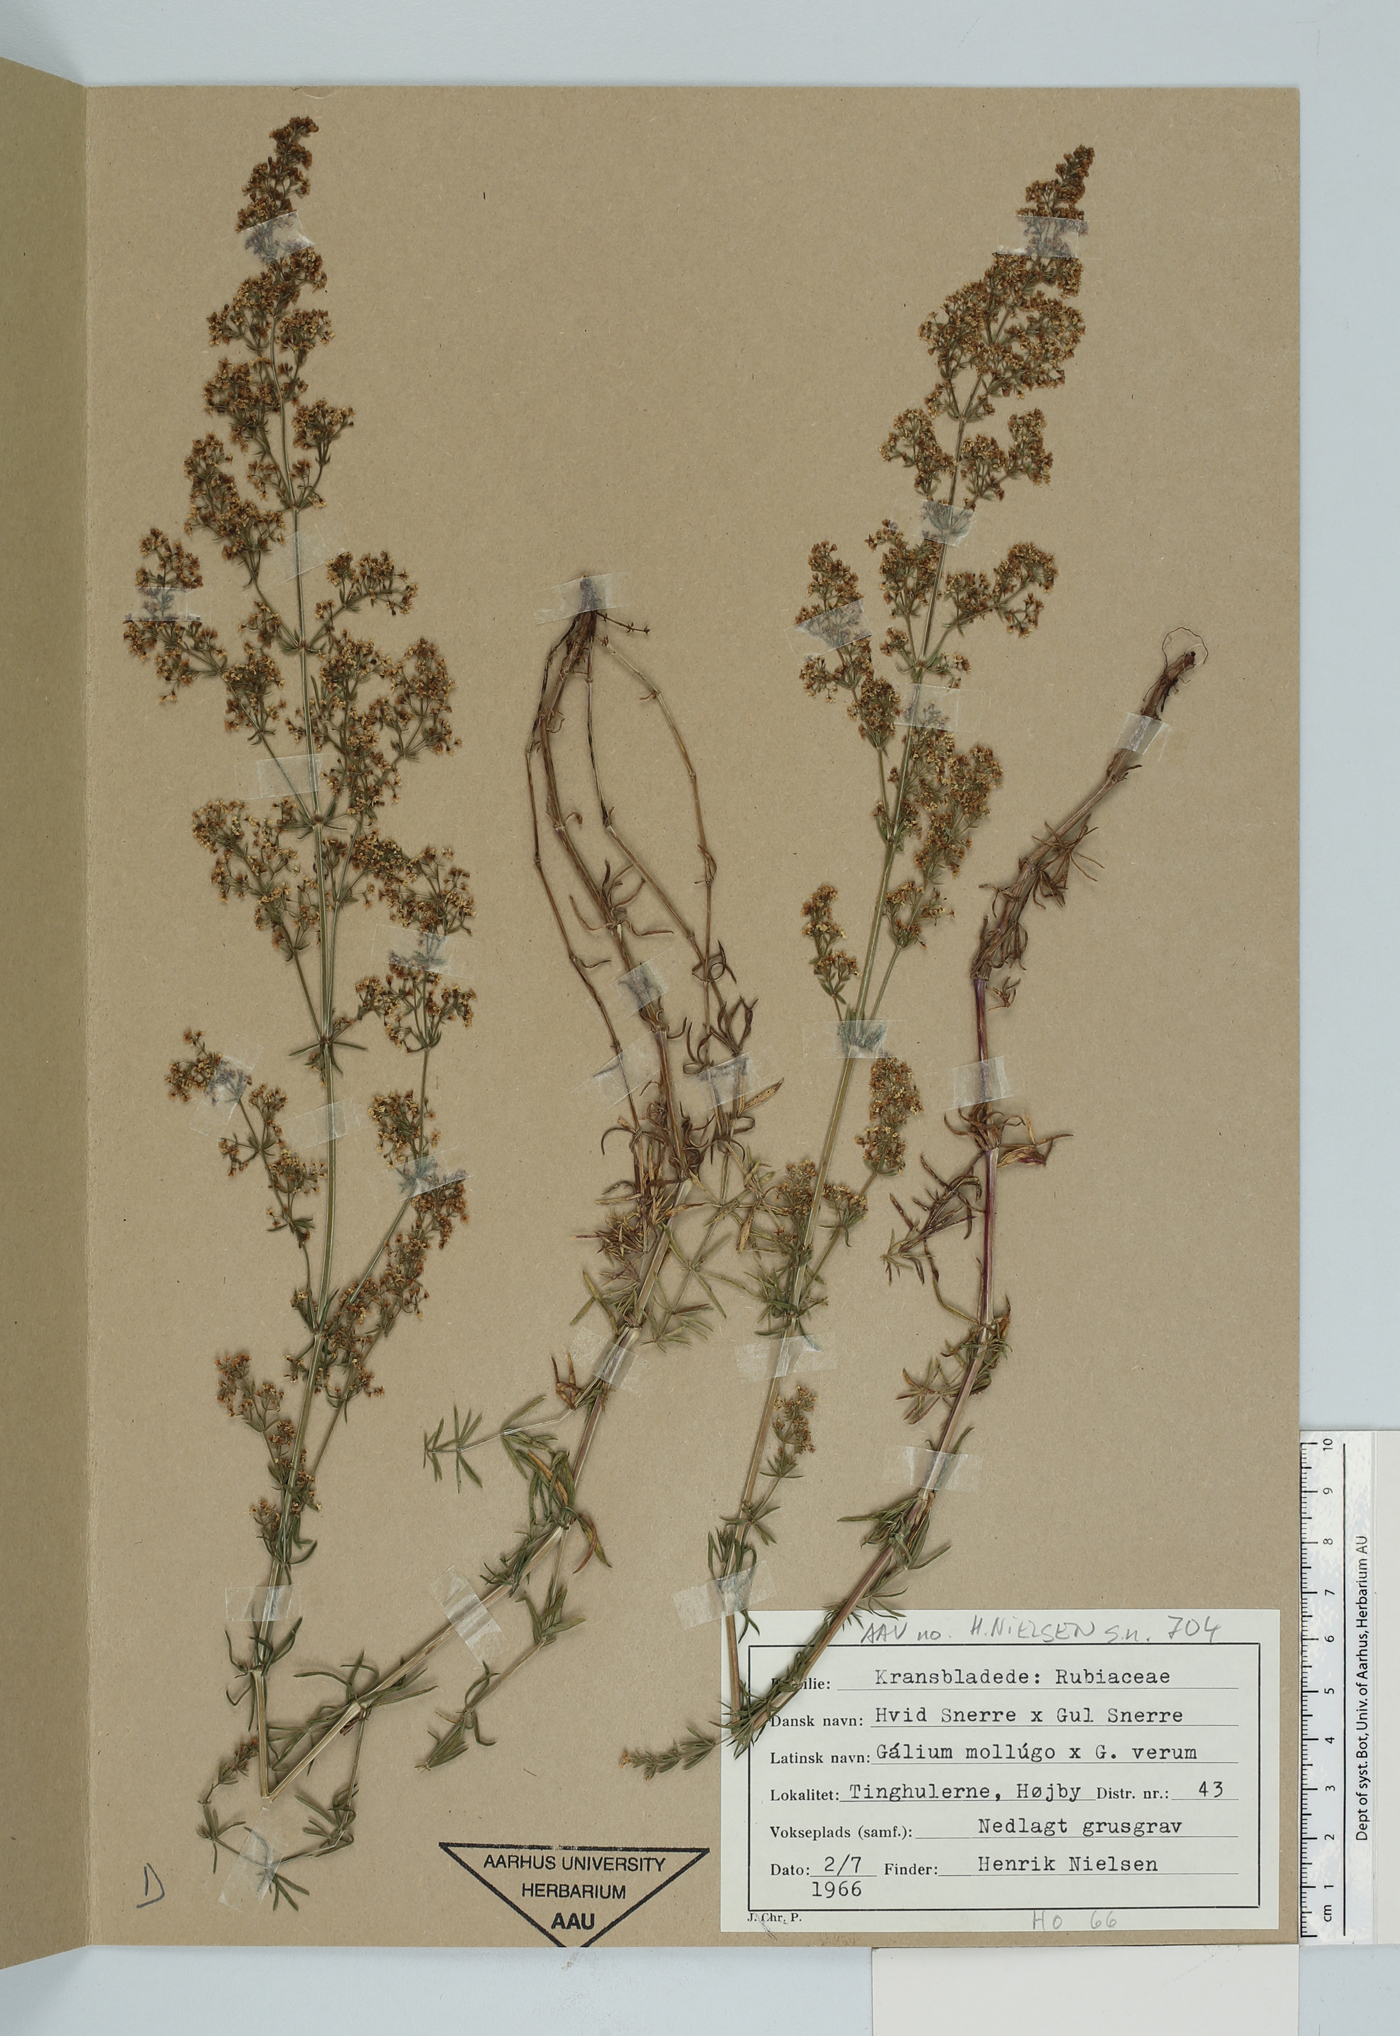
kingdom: Plantae
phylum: Tracheophyta
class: Magnoliopsida
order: Gentianales
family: Rubiaceae
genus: Galium
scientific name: Galium
